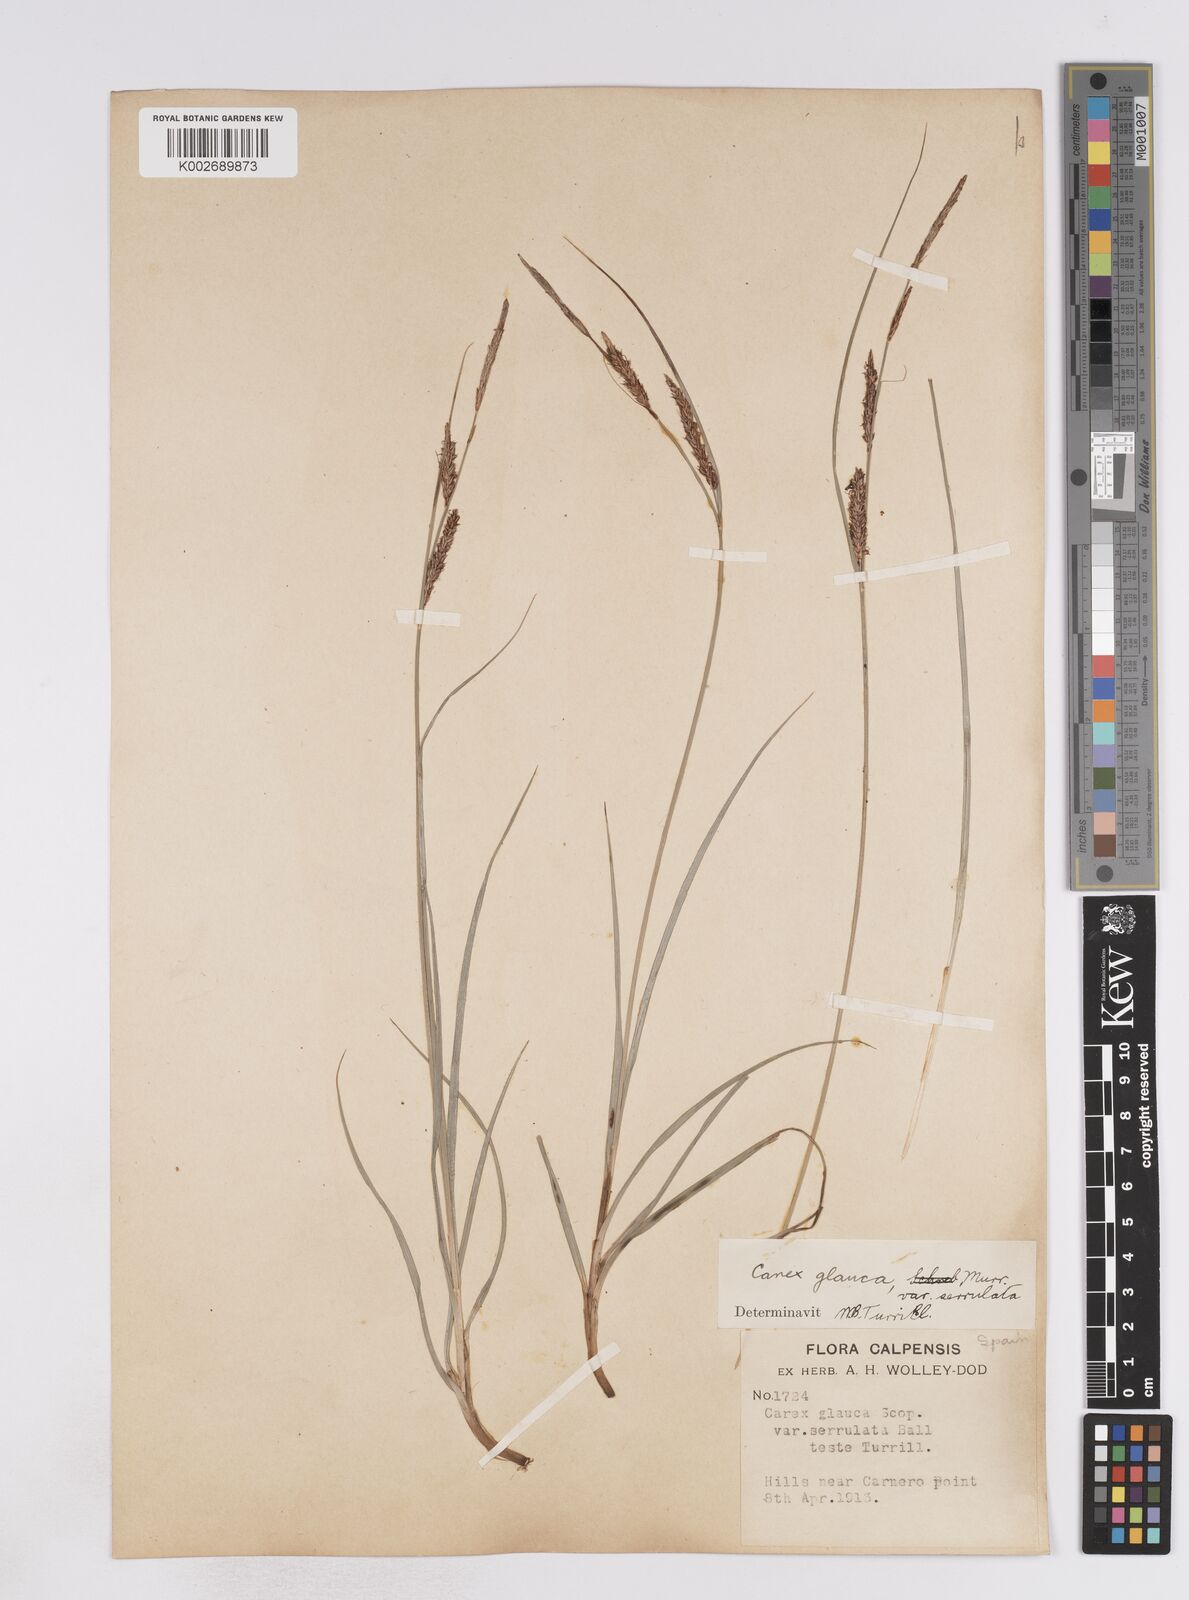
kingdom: Plantae
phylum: Tracheophyta
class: Liliopsida
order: Poales
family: Cyperaceae
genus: Carex
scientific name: Carex flacca
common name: Glaucous sedge
